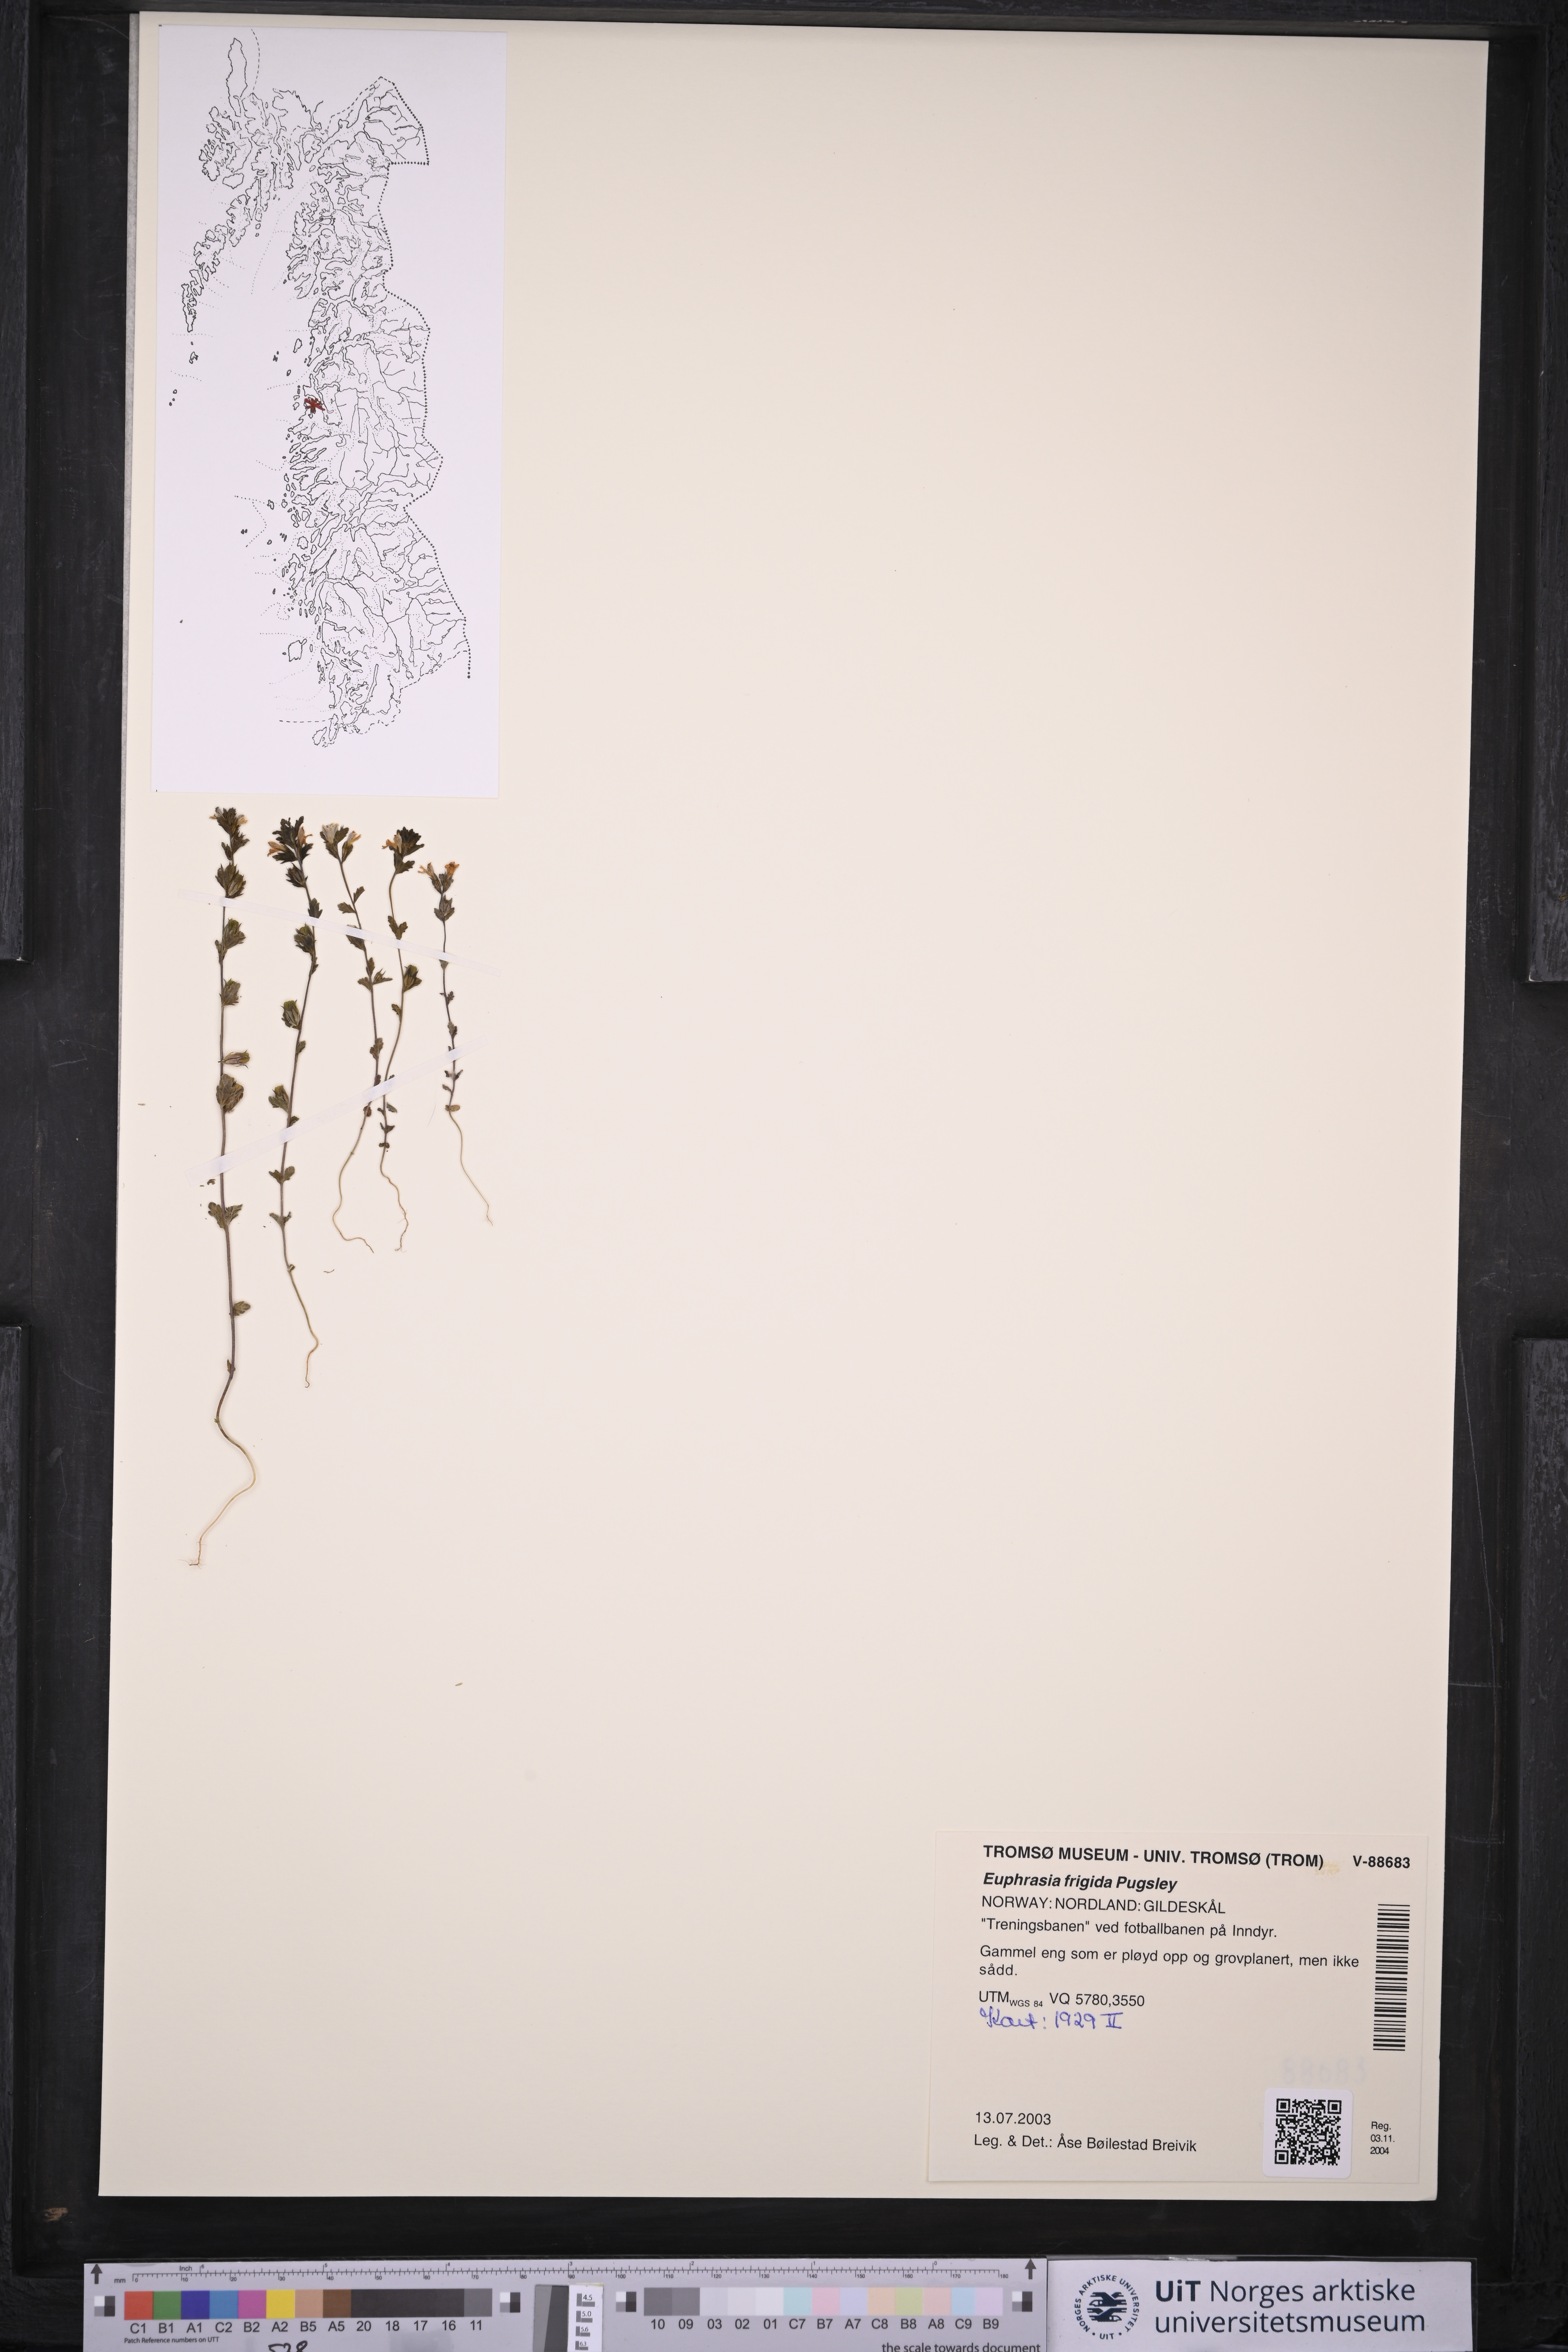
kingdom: Plantae
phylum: Tracheophyta
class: Magnoliopsida
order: Lamiales
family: Orobanchaceae
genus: Euphrasia
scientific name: Euphrasia frigida
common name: An eyebright
